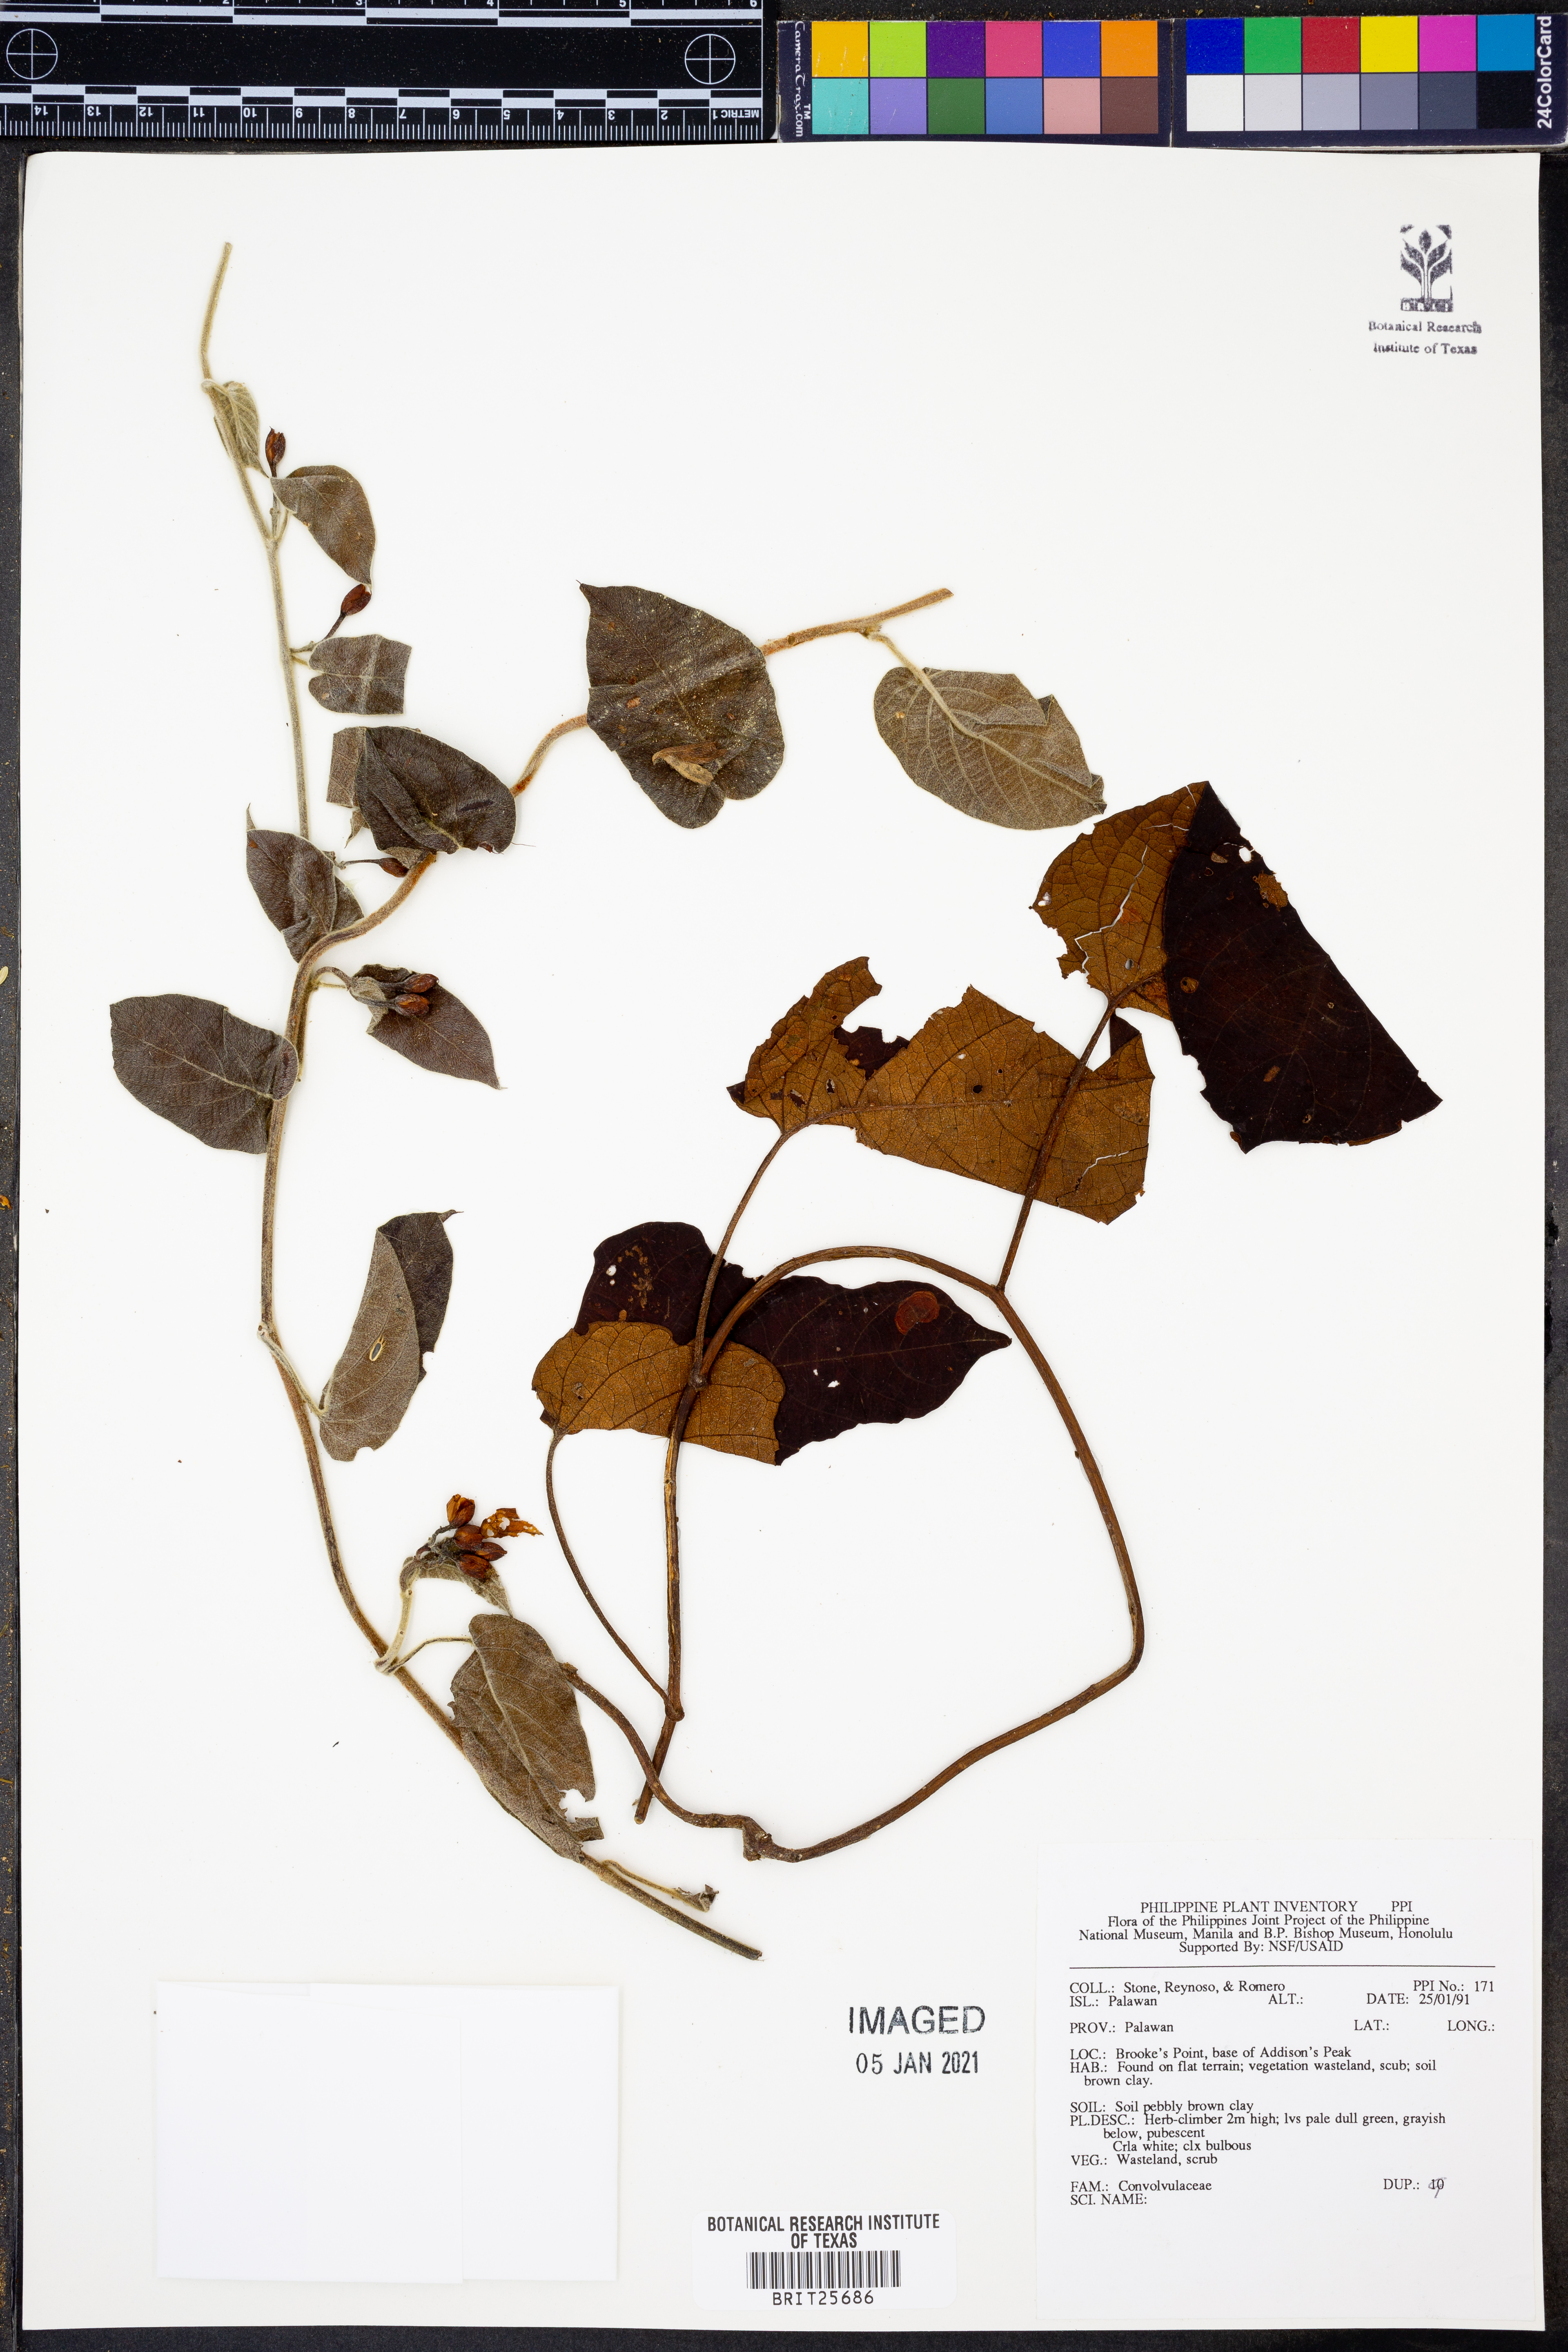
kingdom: Plantae
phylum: Tracheophyta
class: Magnoliopsida
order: Solanales
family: Convolvulaceae
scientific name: Convolvulaceae
